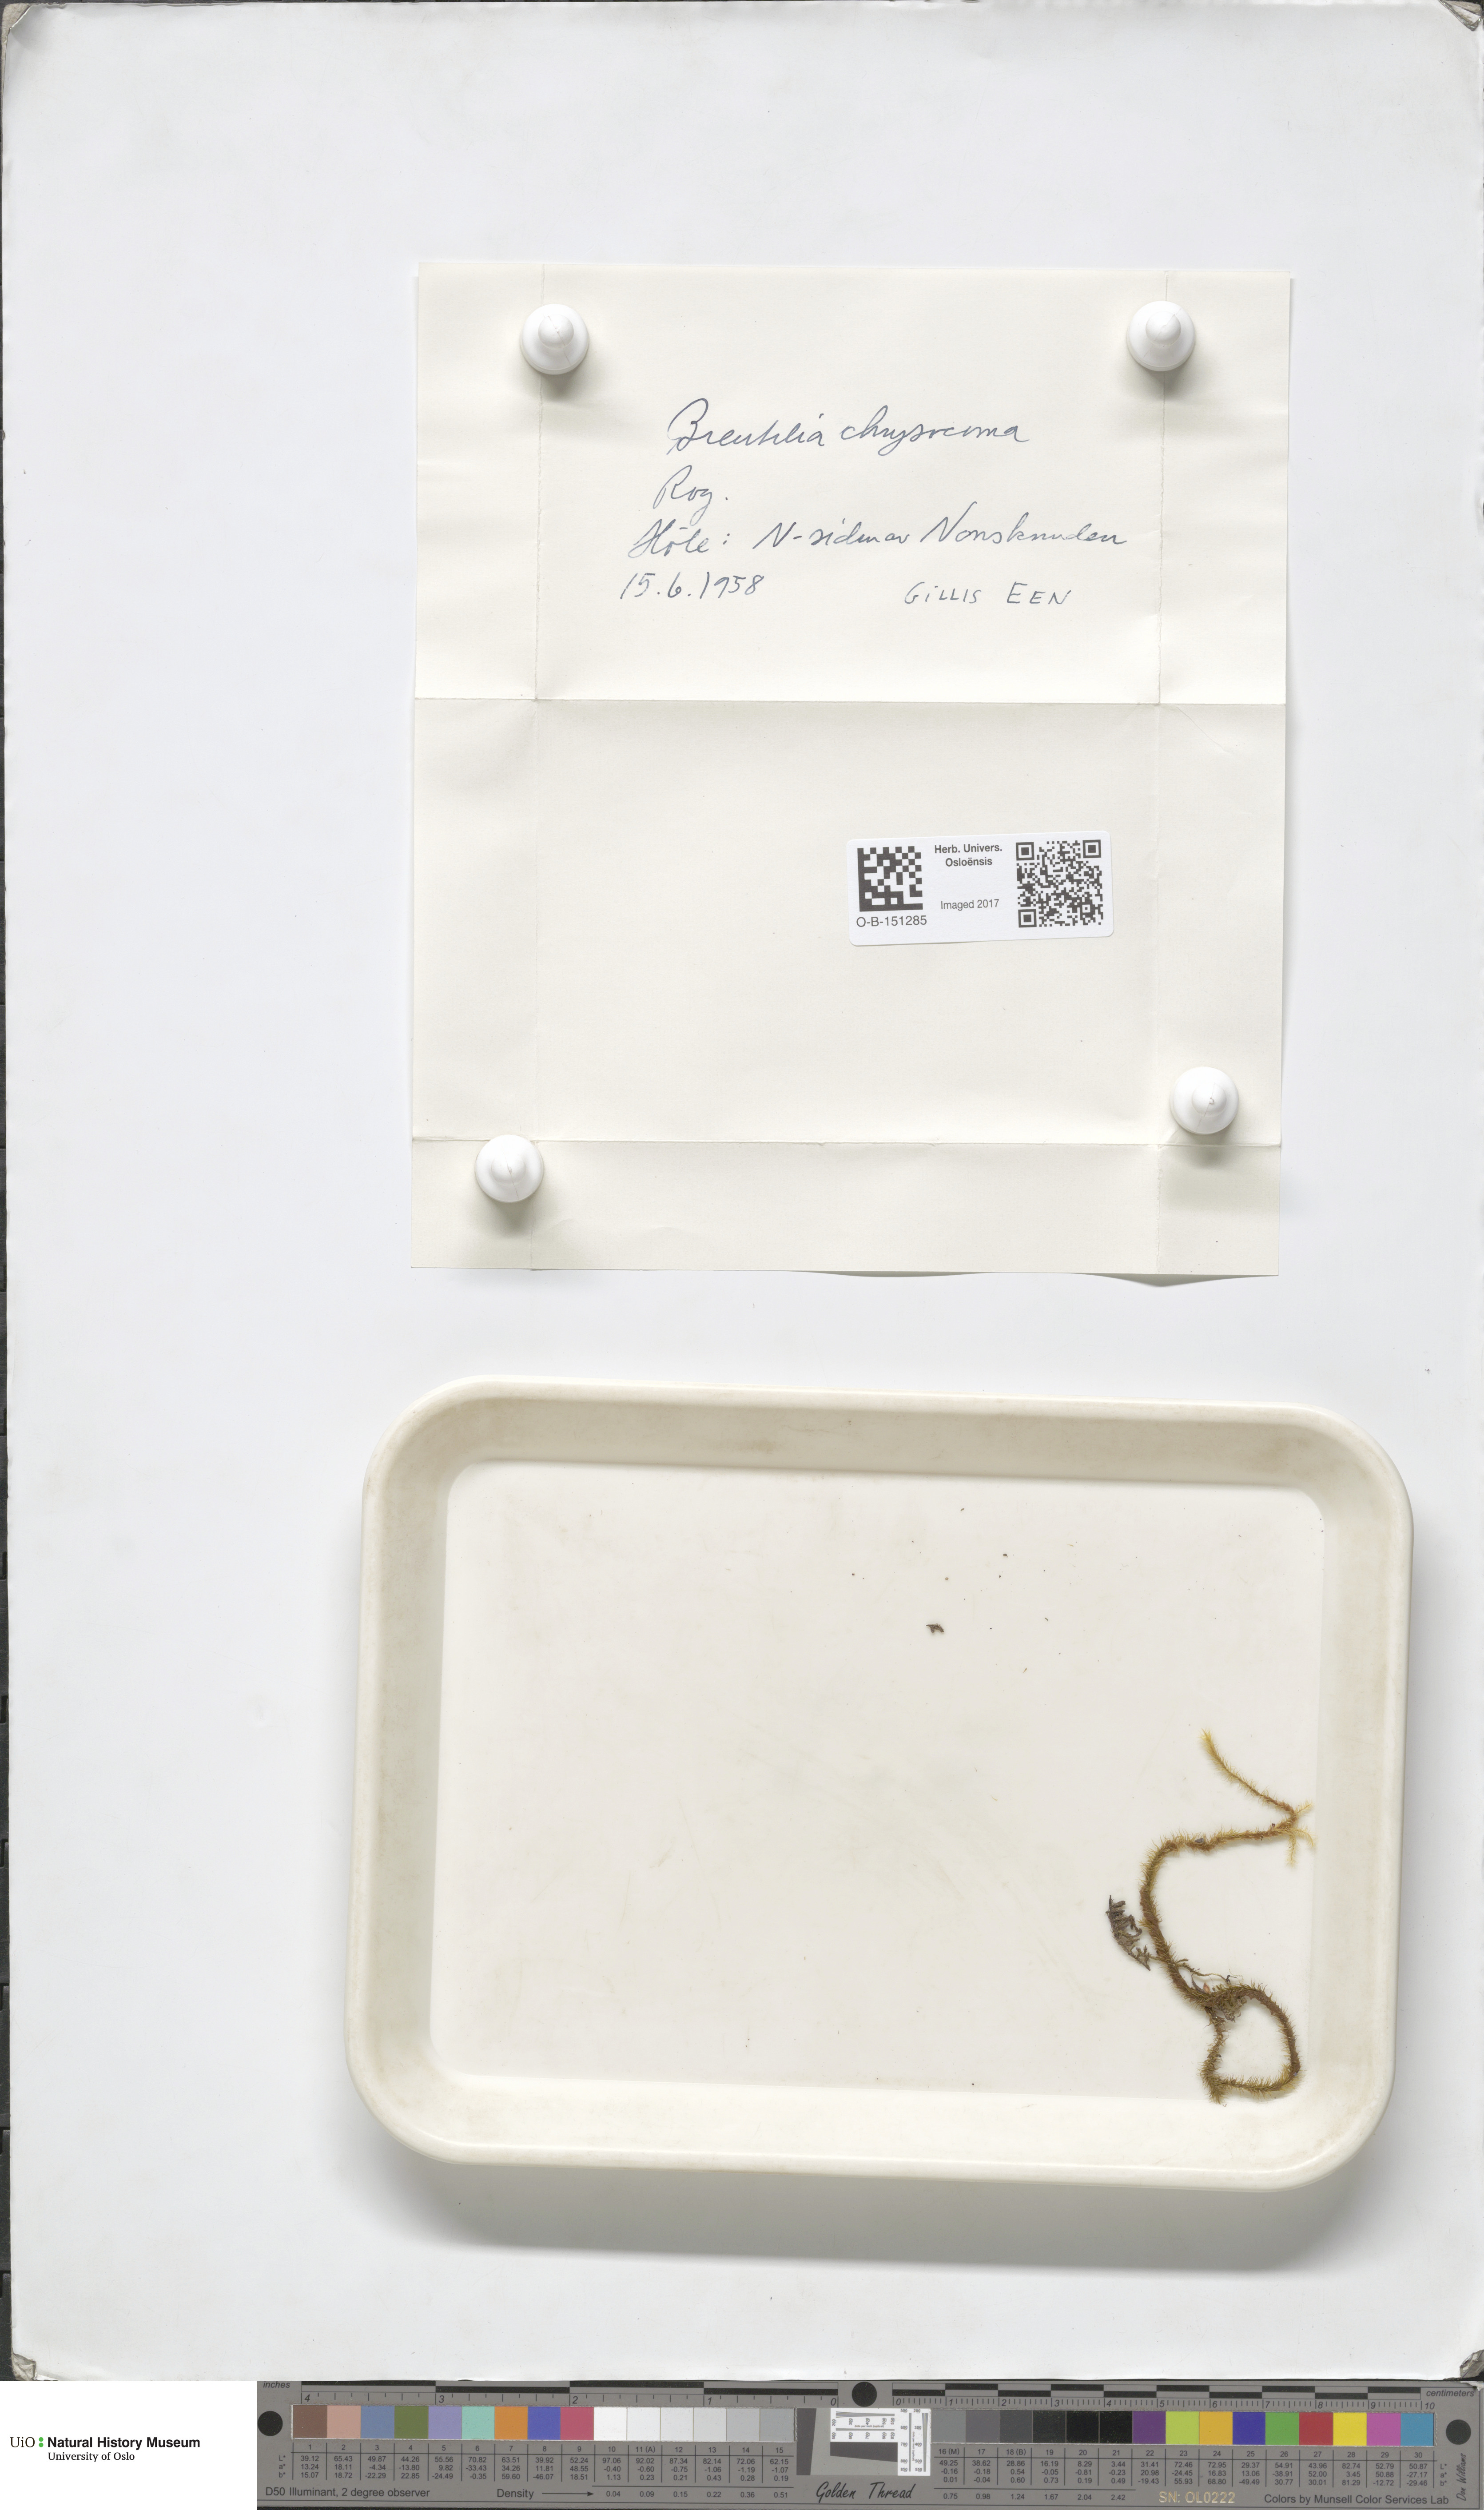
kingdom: Plantae
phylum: Bryophyta
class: Bryopsida
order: Bartramiales
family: Bartramiaceae
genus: Breutelia
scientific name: Breutelia chrysocoma
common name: Bottle-brush moss
